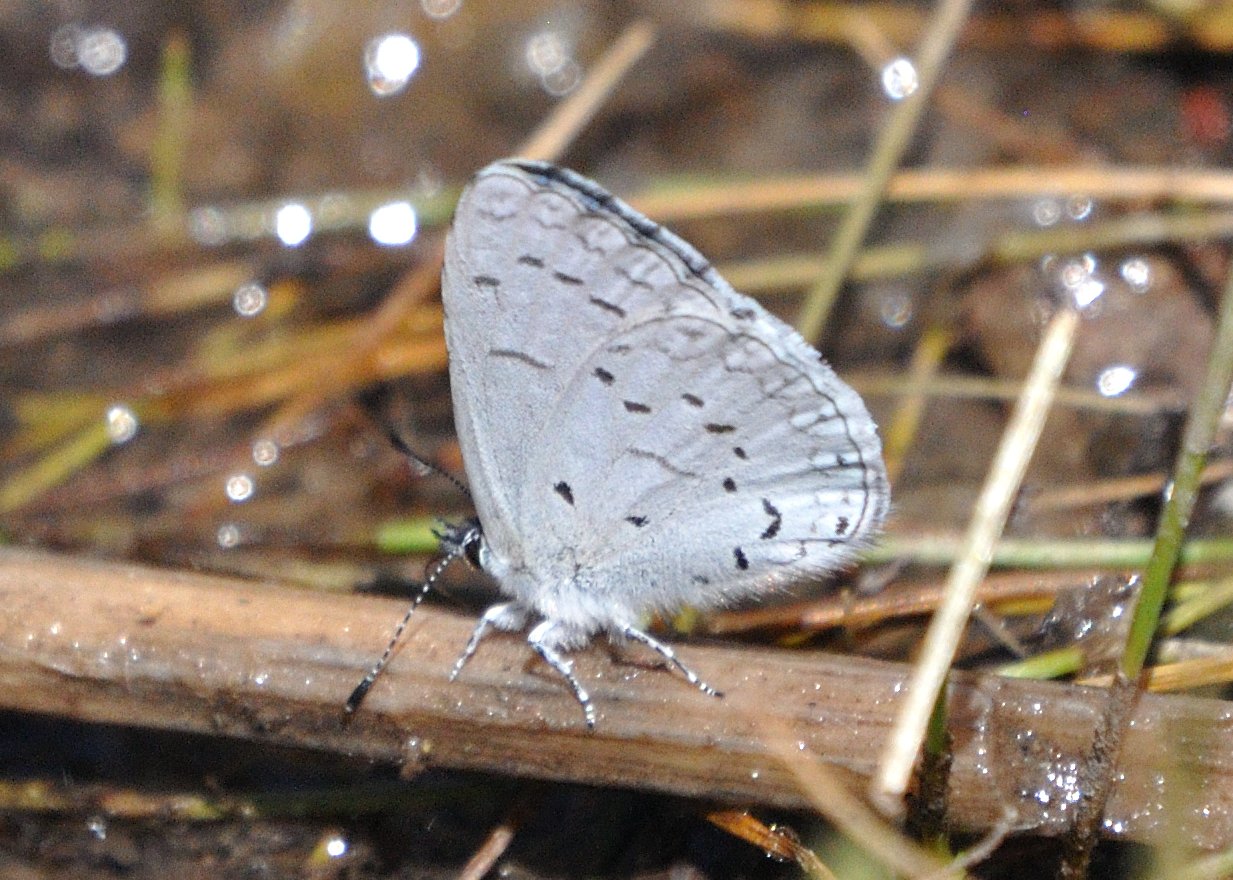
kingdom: Animalia
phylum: Arthropoda
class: Insecta
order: Lepidoptera
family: Lycaenidae
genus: Celastrina
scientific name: Celastrina ladon
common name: Echo Azure
